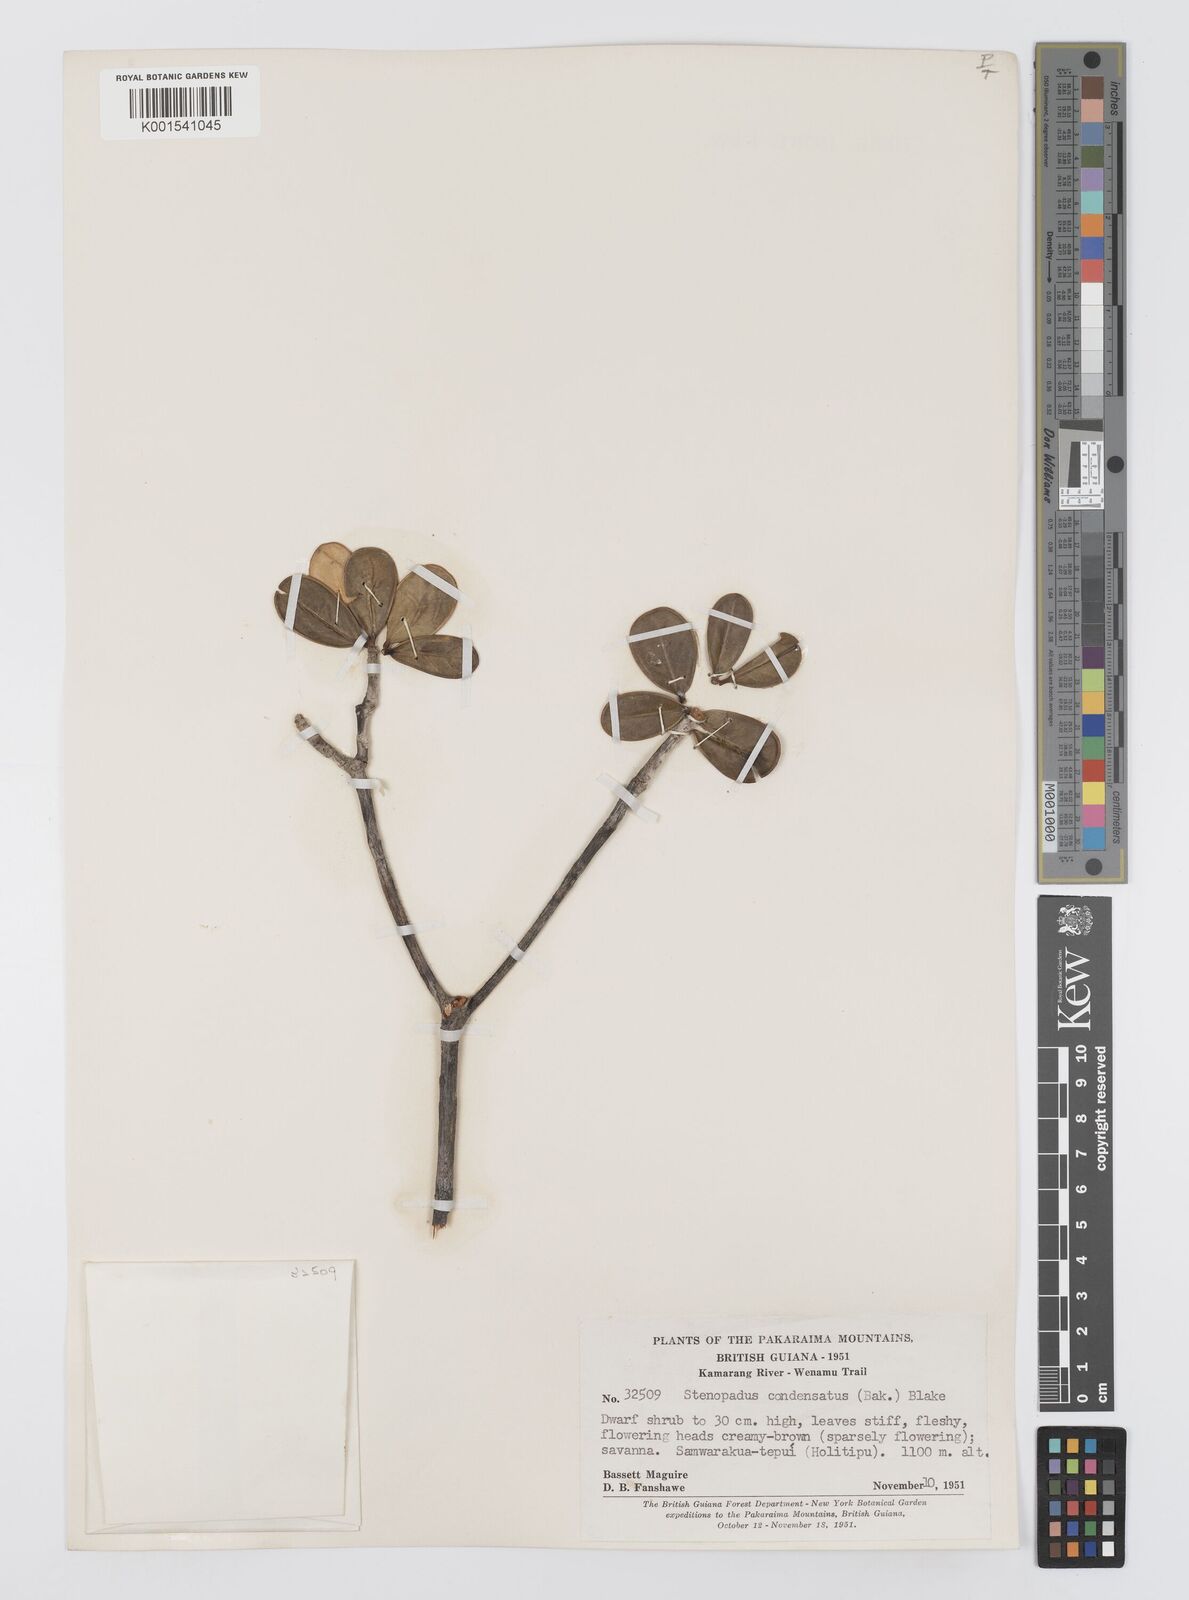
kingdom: Plantae
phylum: Tracheophyta
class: Magnoliopsida
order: Asterales
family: Asteraceae
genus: Stomatochaeta
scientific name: Stomatochaeta condensata
